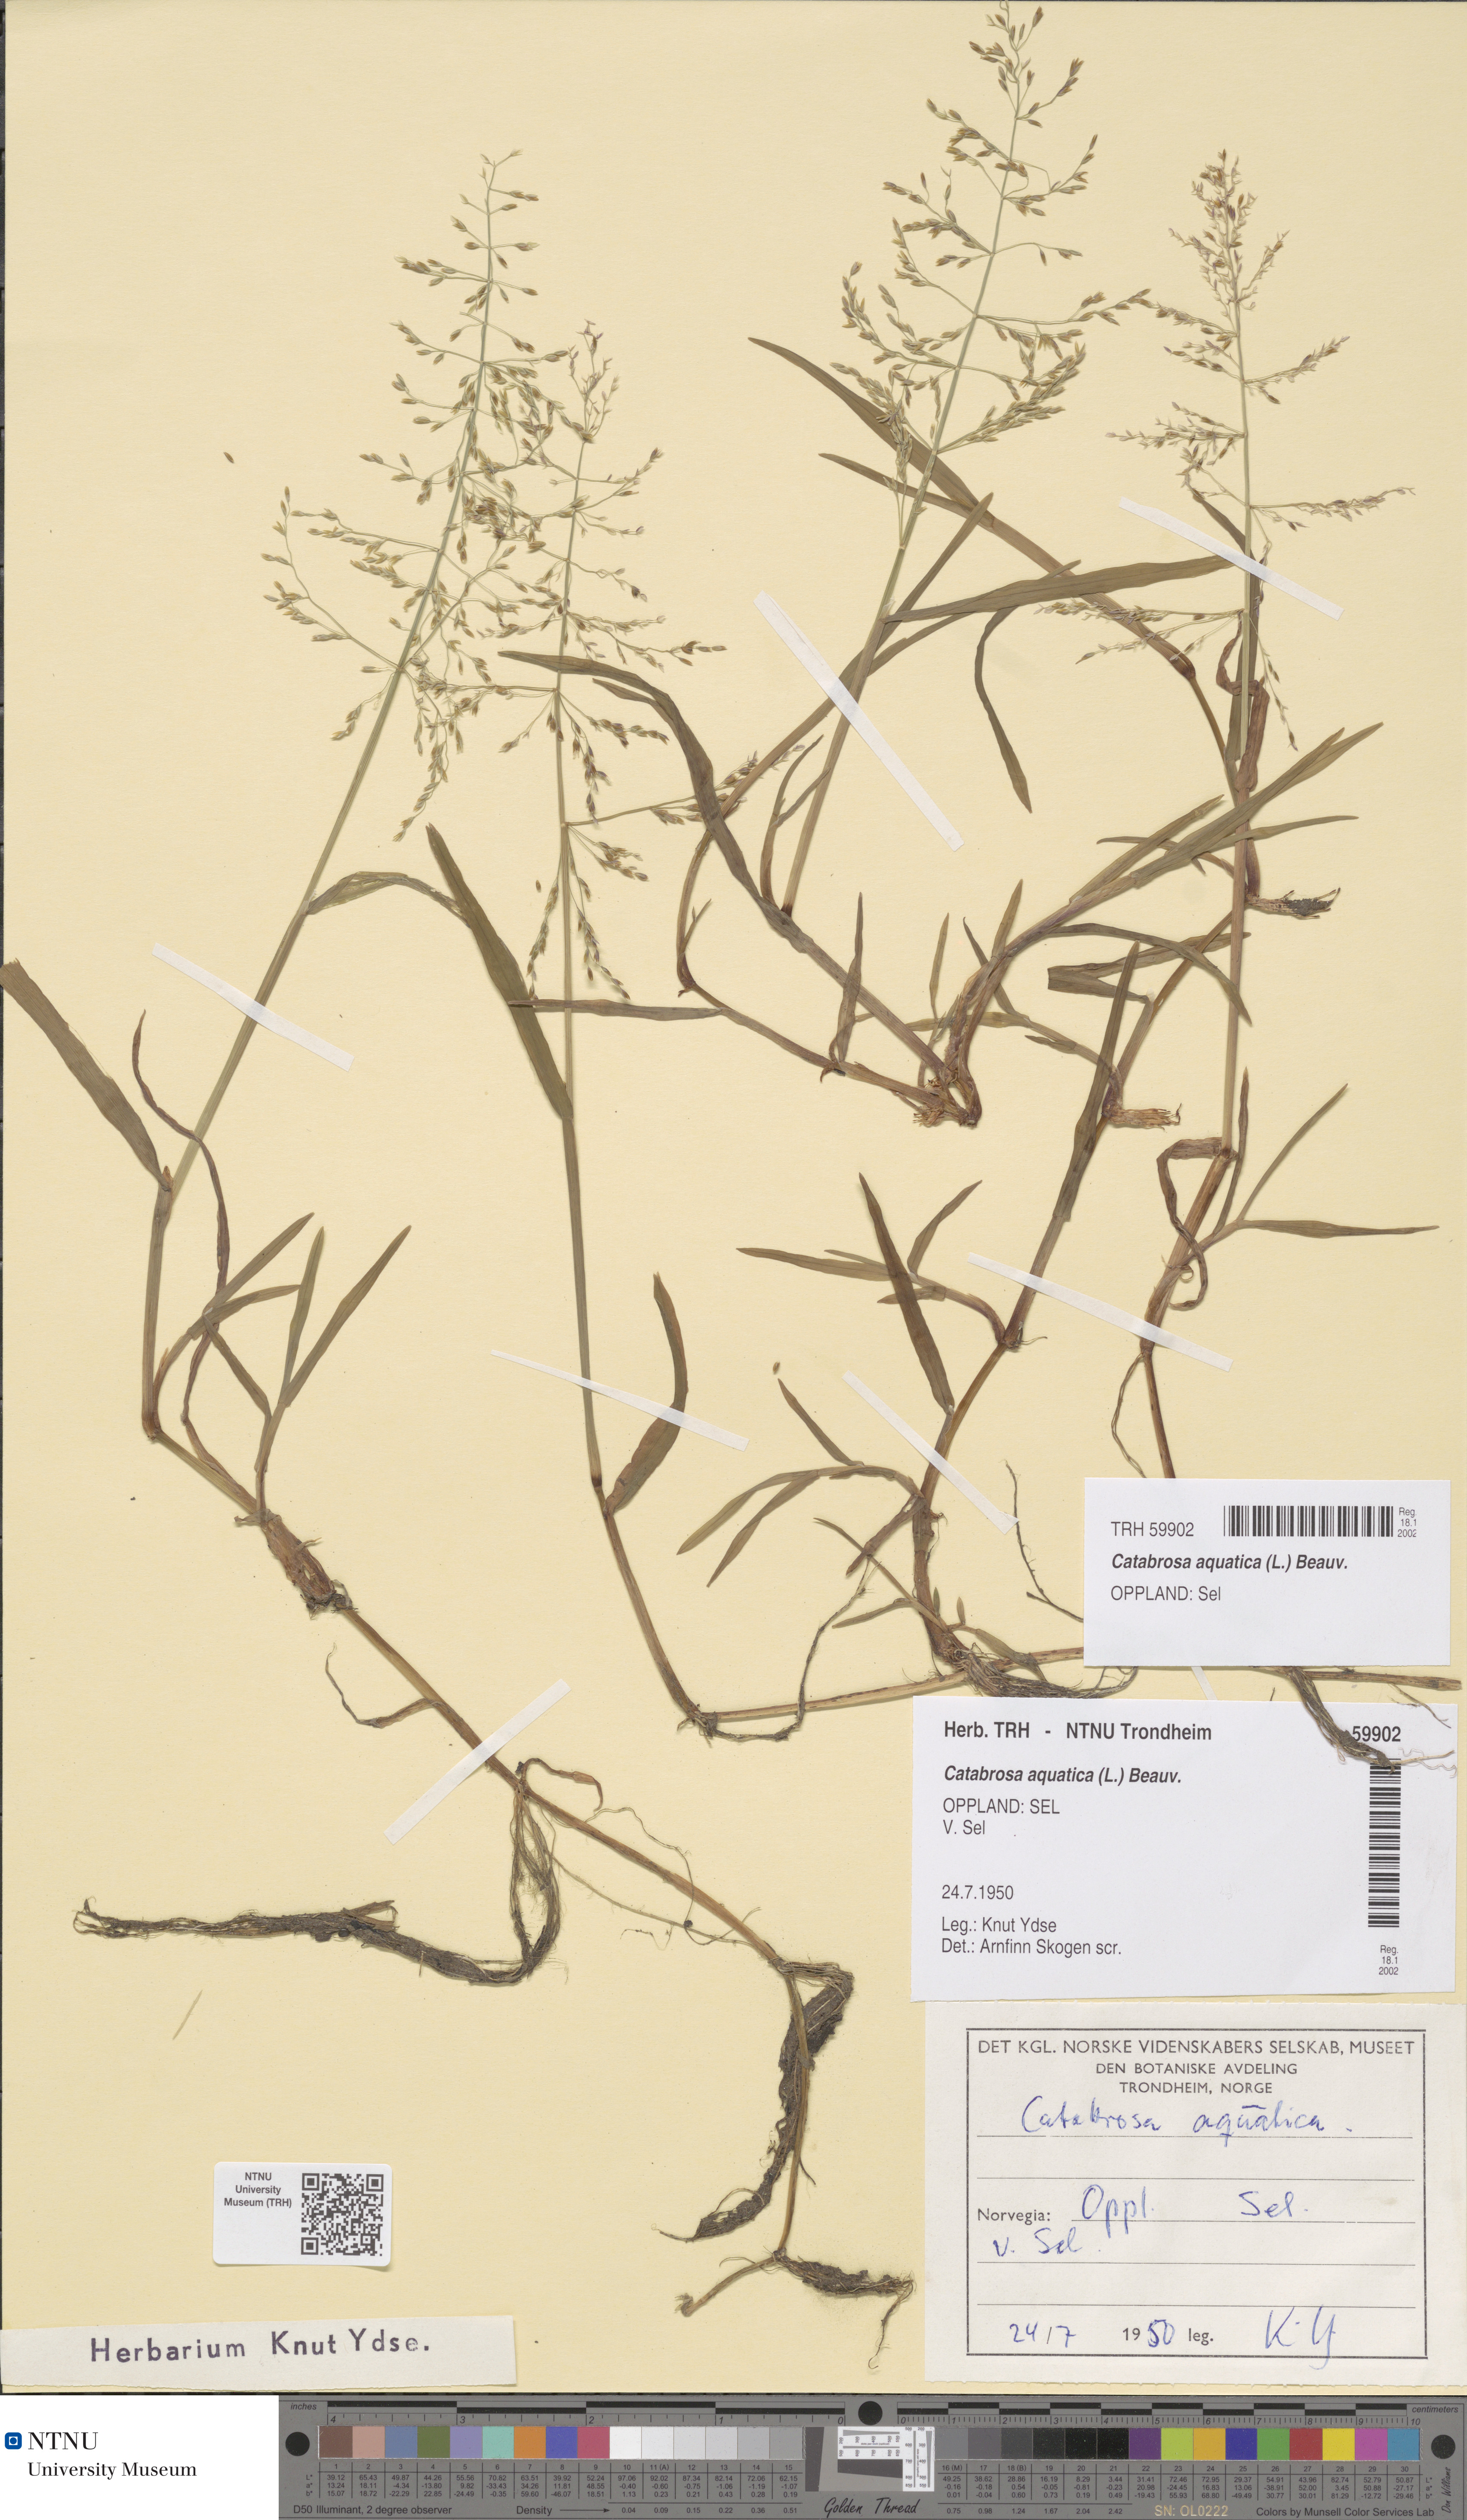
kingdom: Plantae
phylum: Tracheophyta
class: Liliopsida
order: Poales
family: Poaceae
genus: Catabrosa
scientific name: Catabrosa aquatica
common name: Whorl-grass
